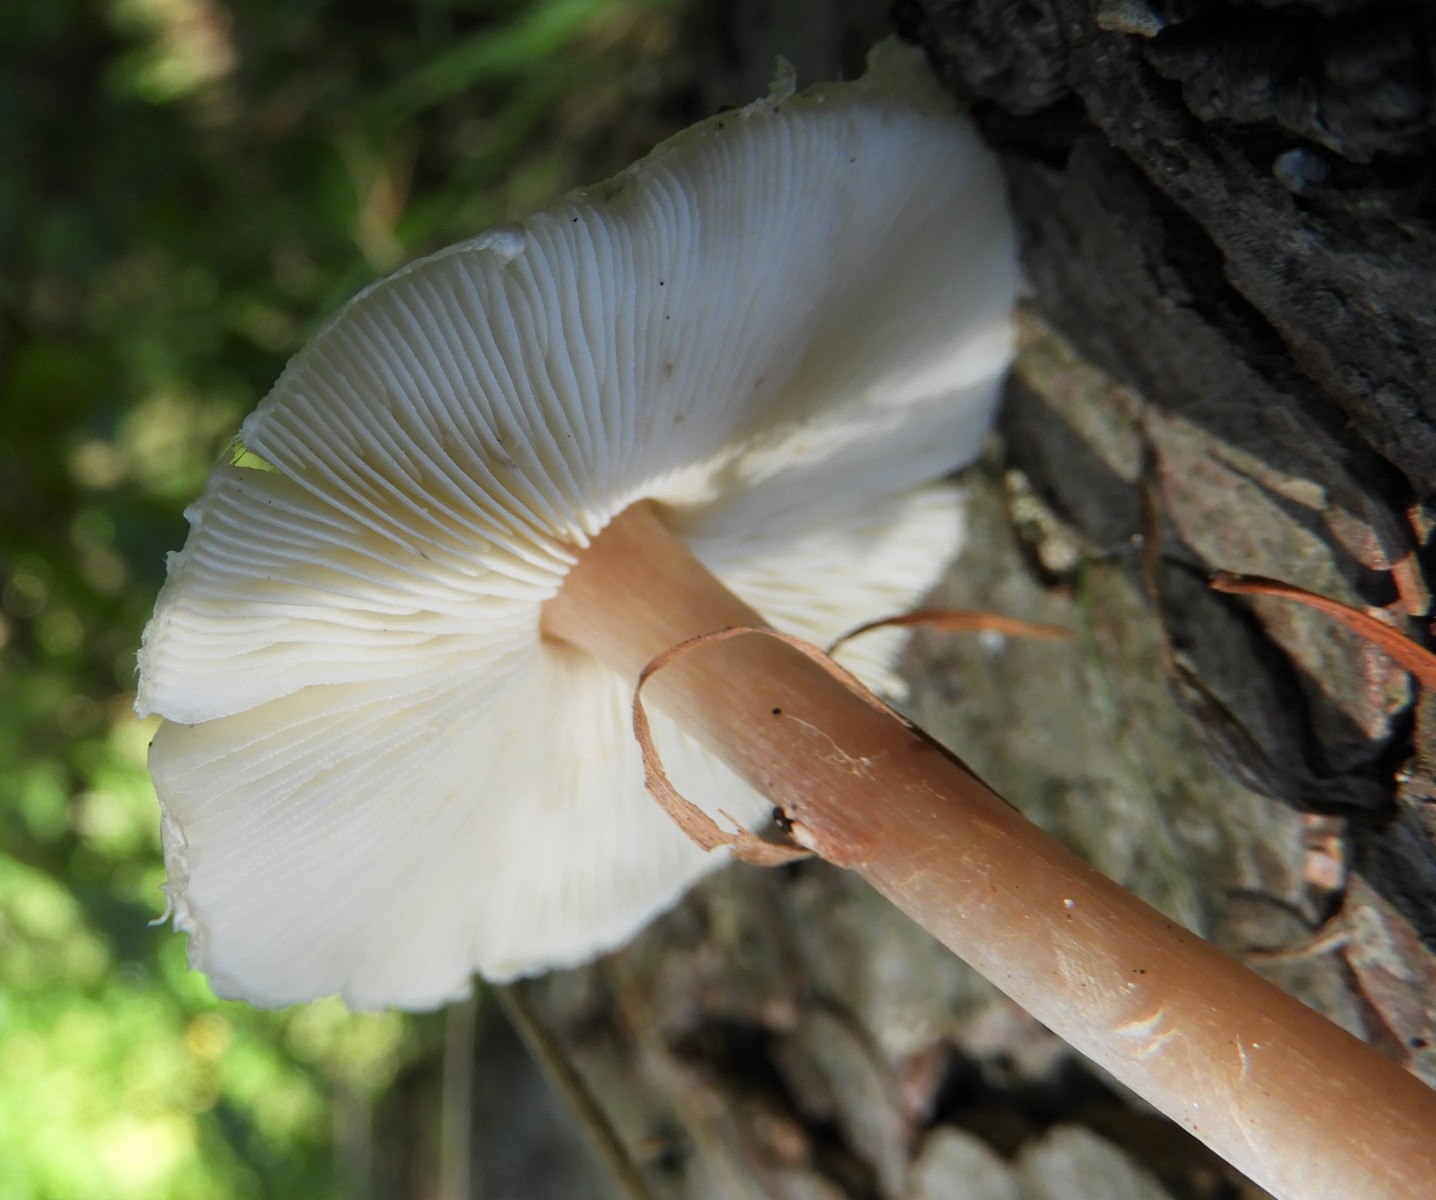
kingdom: Fungi
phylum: Basidiomycota
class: Agaricomycetes
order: Agaricales
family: Agaricaceae
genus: Lepiota
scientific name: Lepiota cristata
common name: stinkende parasolhat
